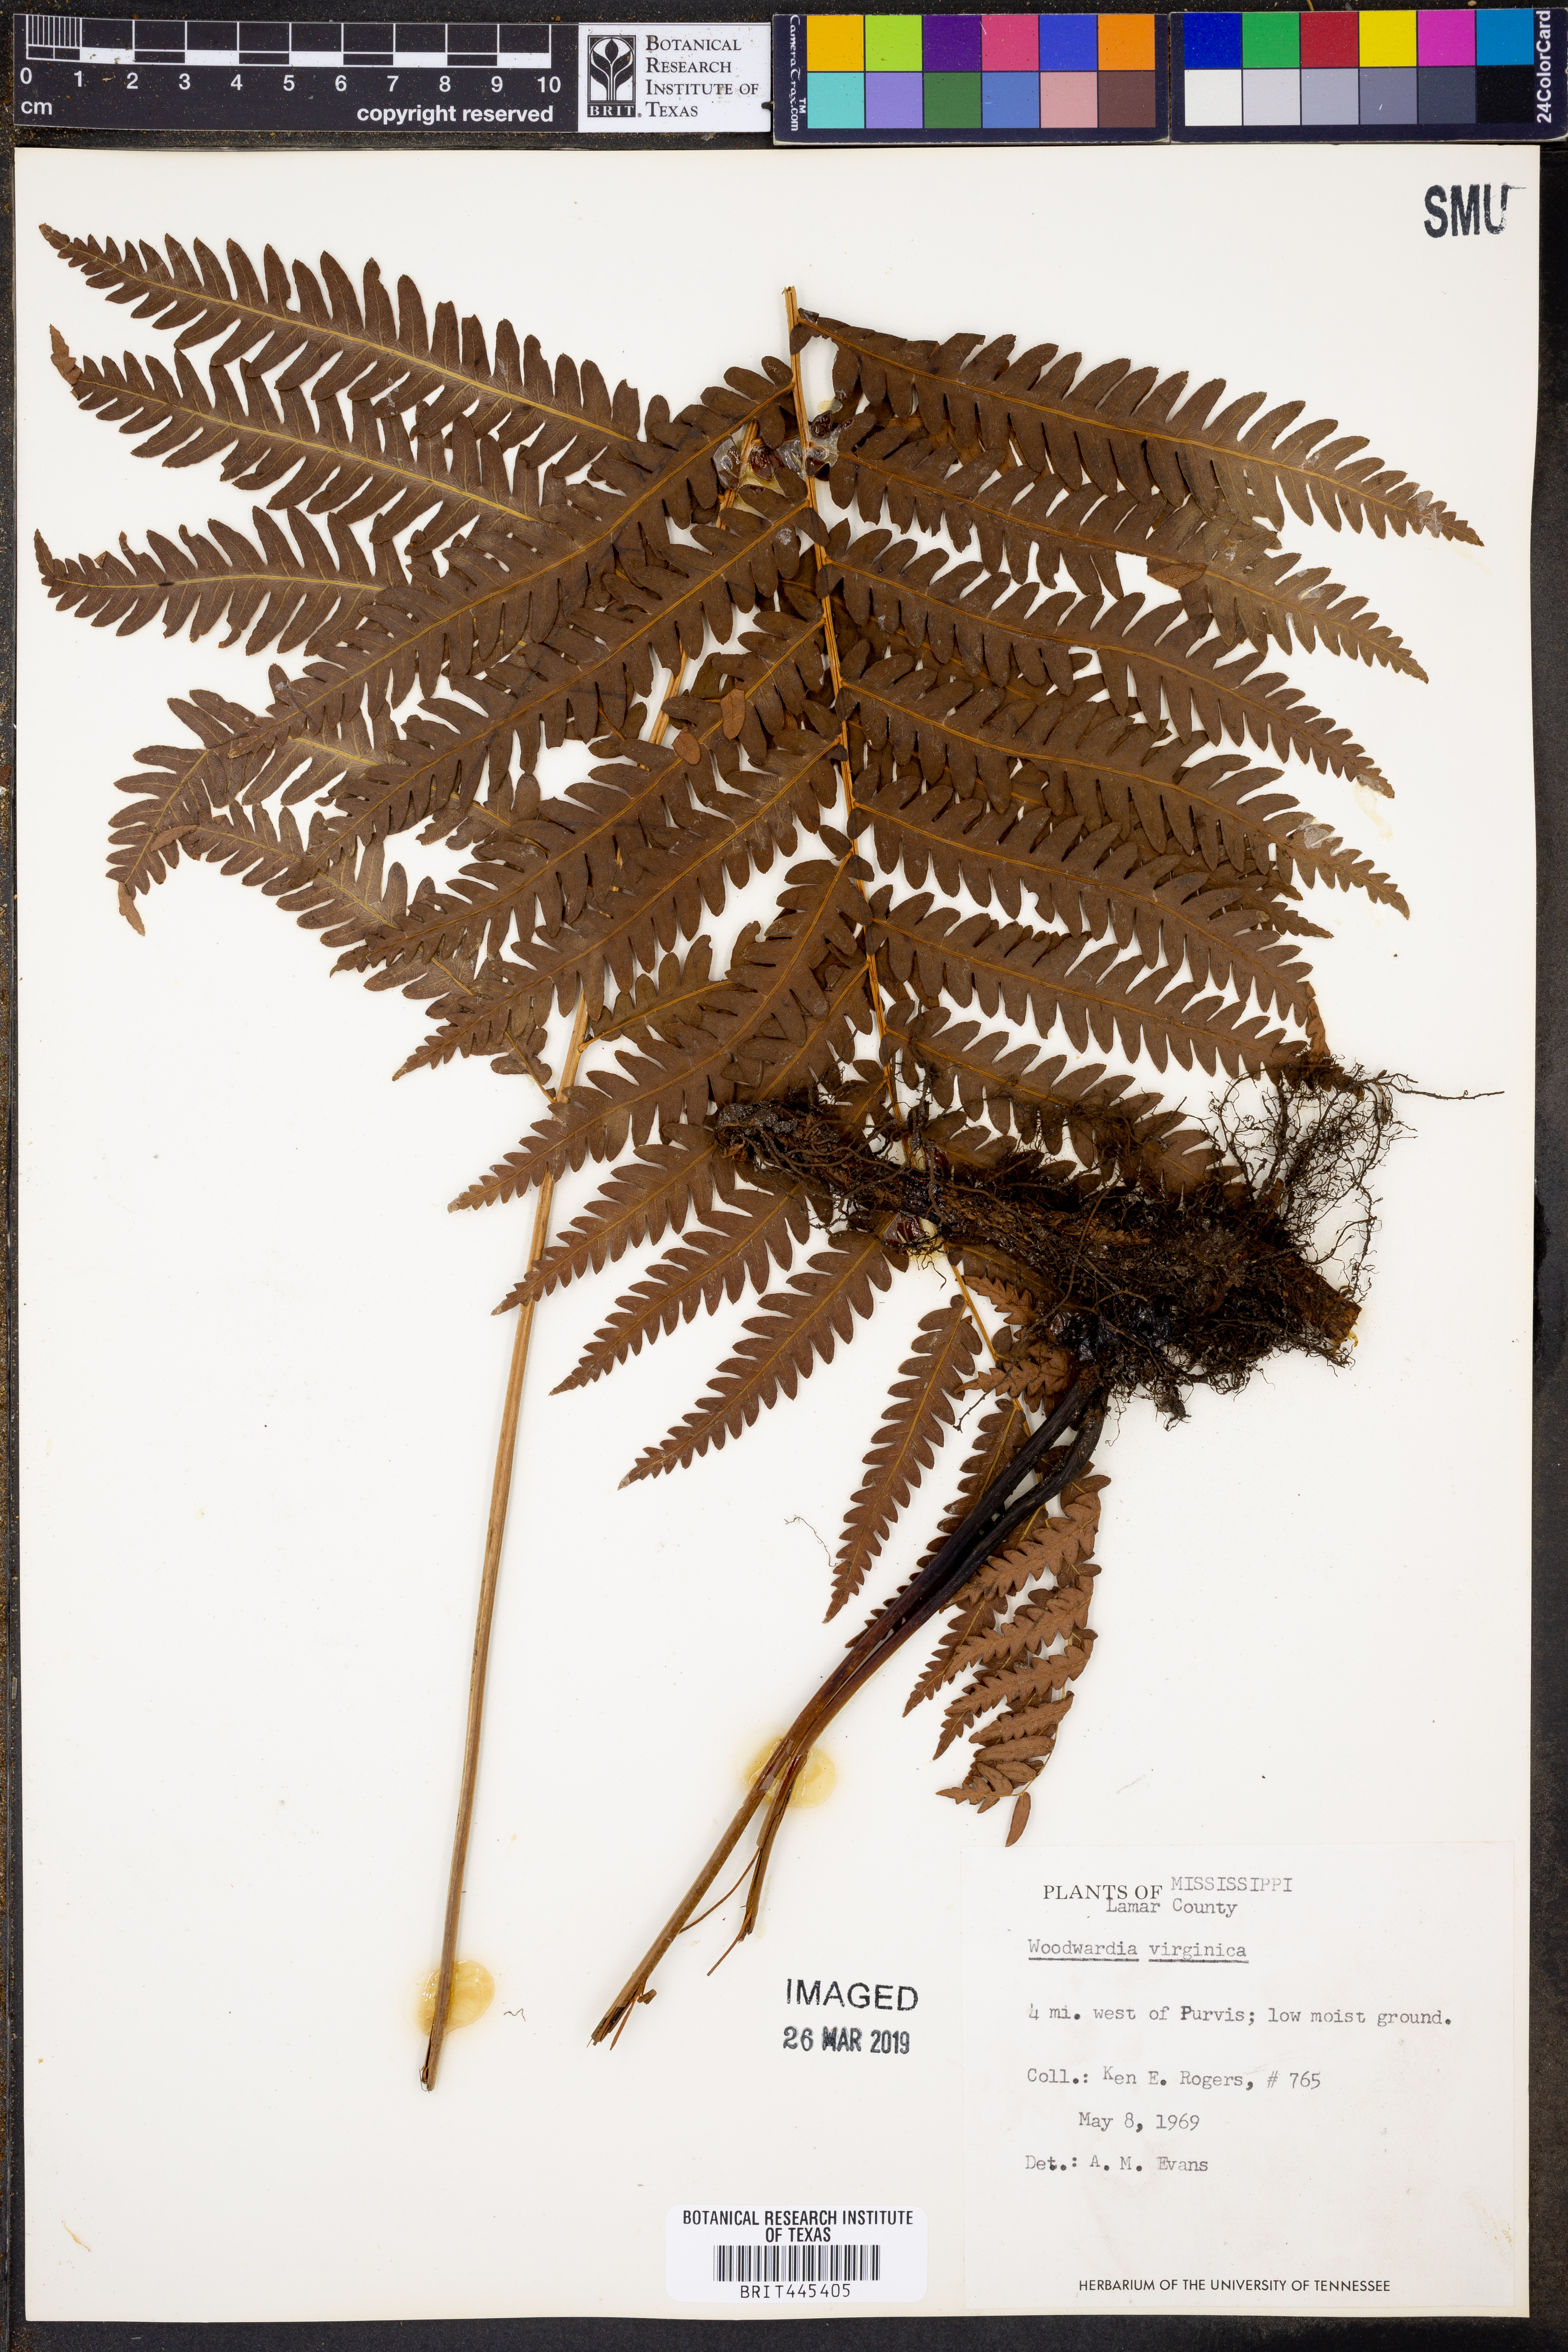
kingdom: Plantae
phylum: Tracheophyta
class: Polypodiopsida
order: Polypodiales
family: Blechnaceae
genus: Anchistea
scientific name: Anchistea virginica
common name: Virginia chain fern
